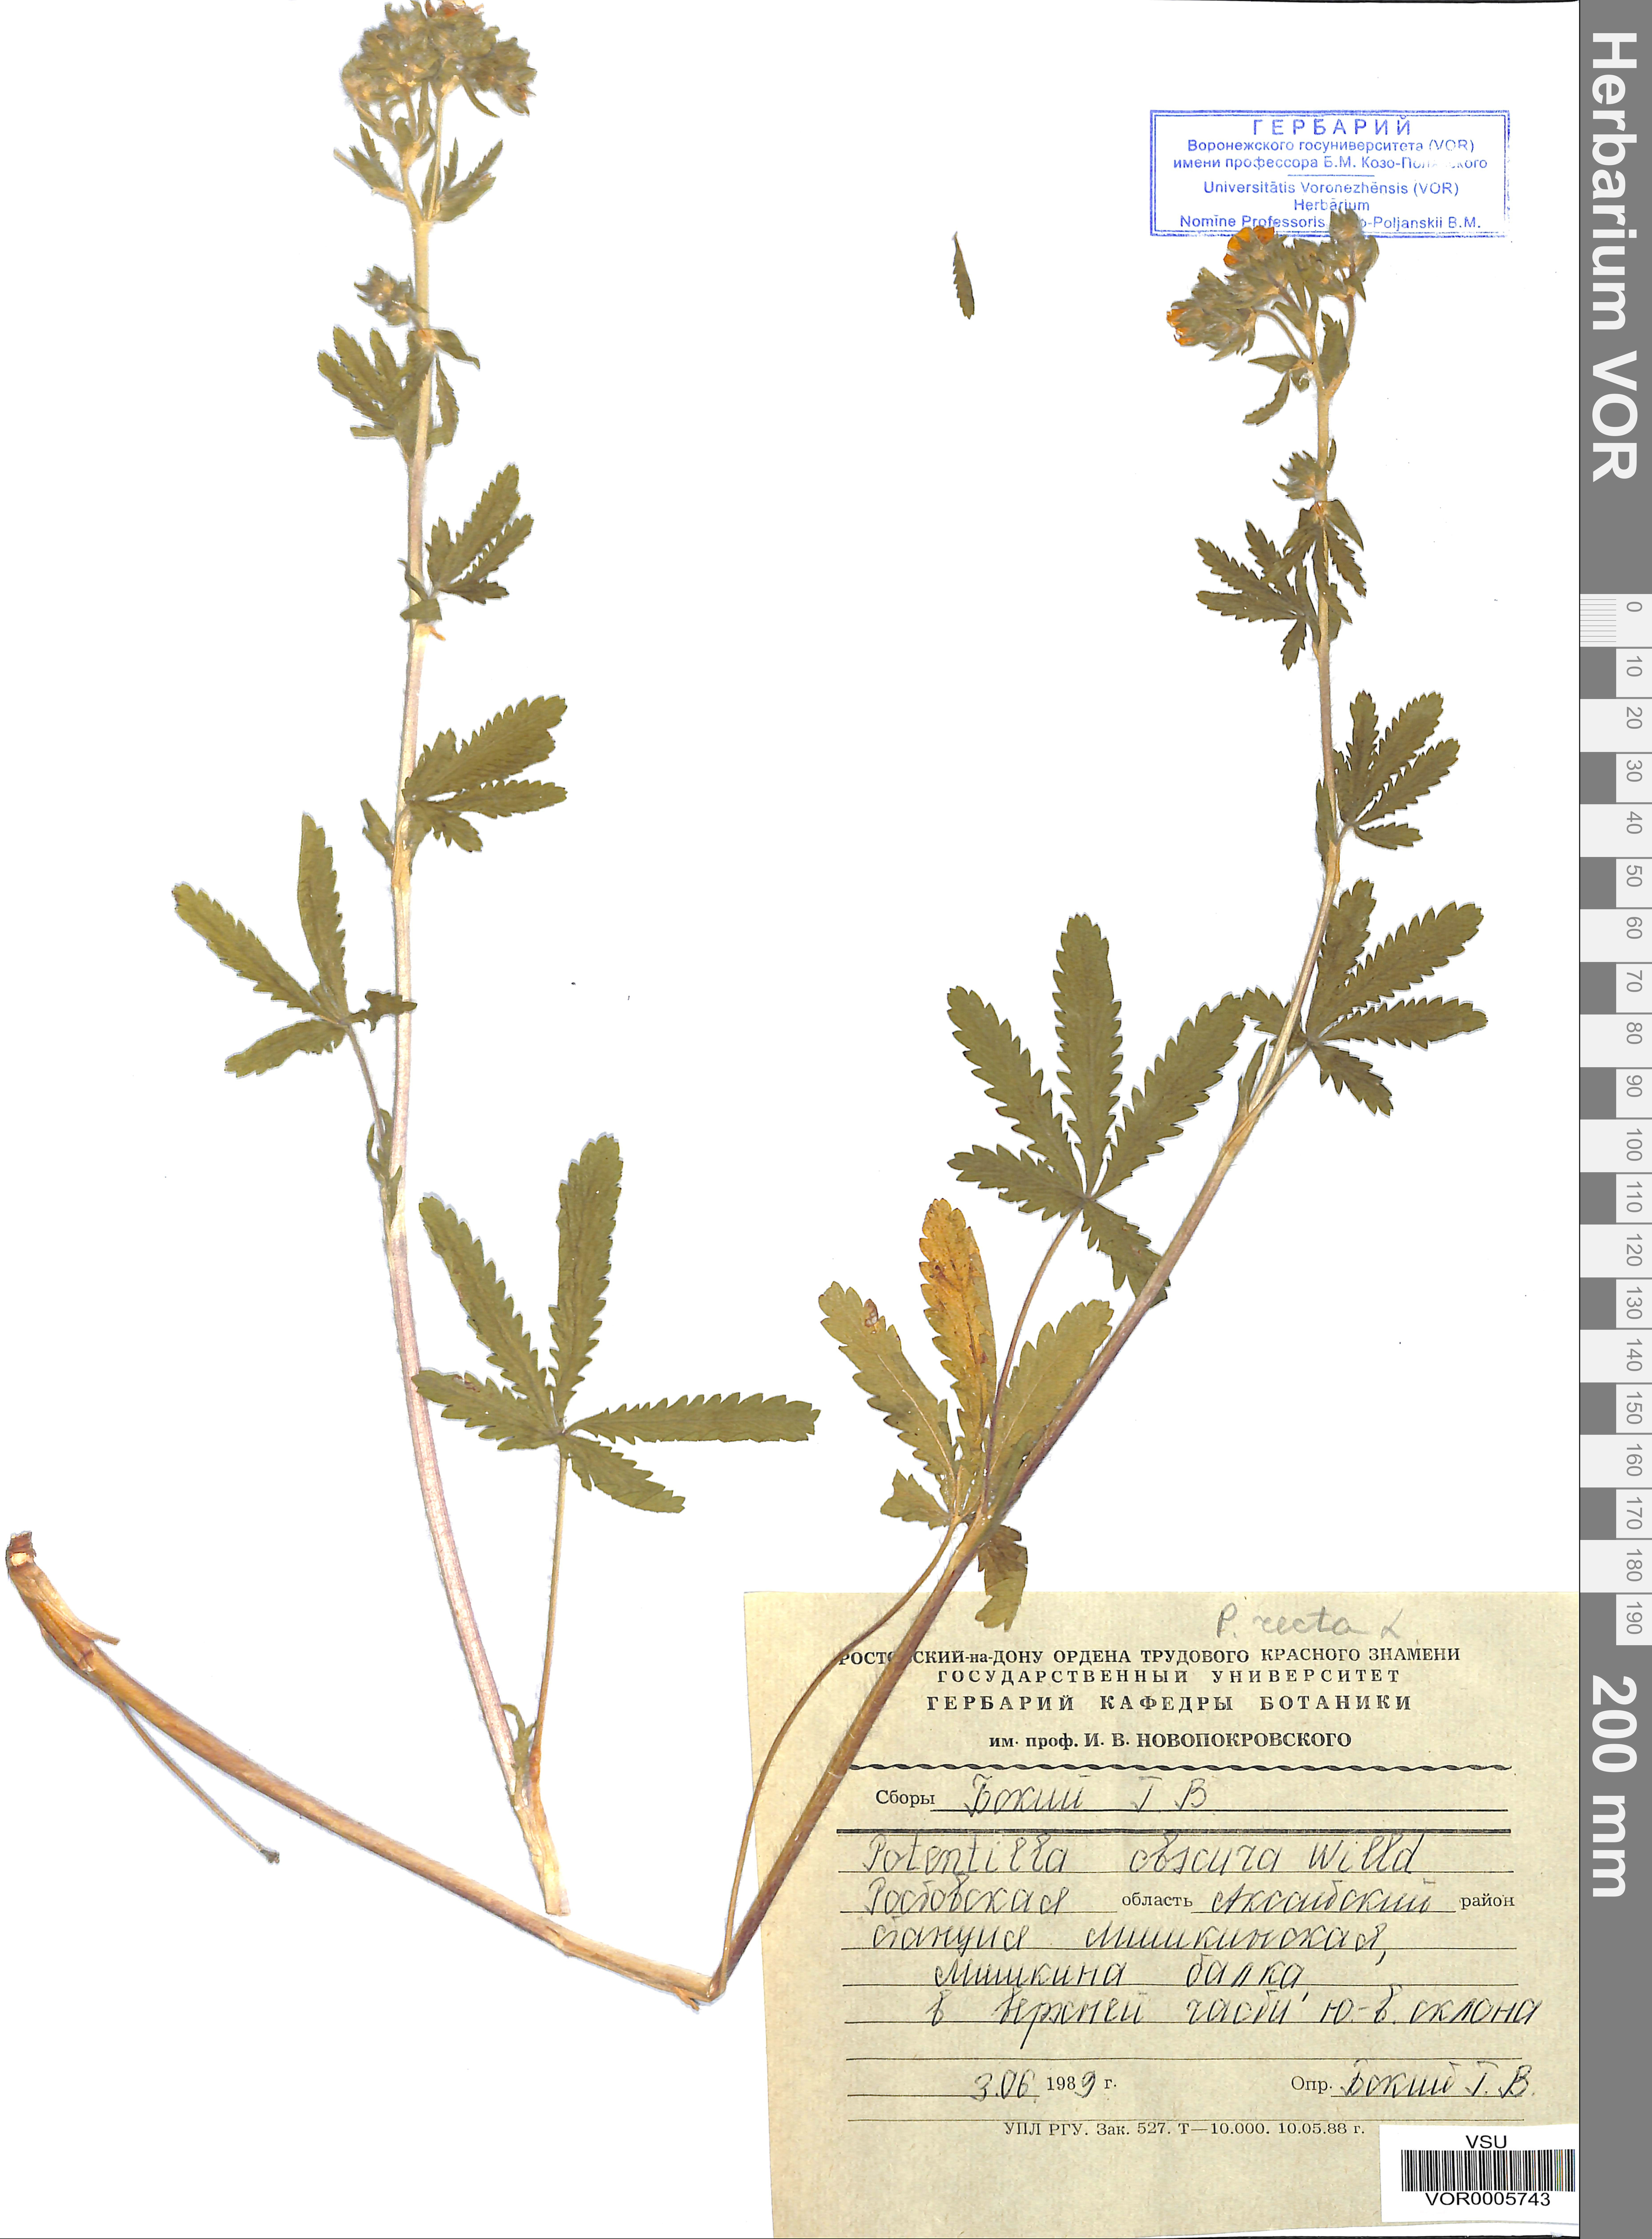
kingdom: Plantae
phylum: Tracheophyta
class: Magnoliopsida
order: Rosales
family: Rosaceae
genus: Potentilla
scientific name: Potentilla recta
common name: Sulphur cinquefoil
